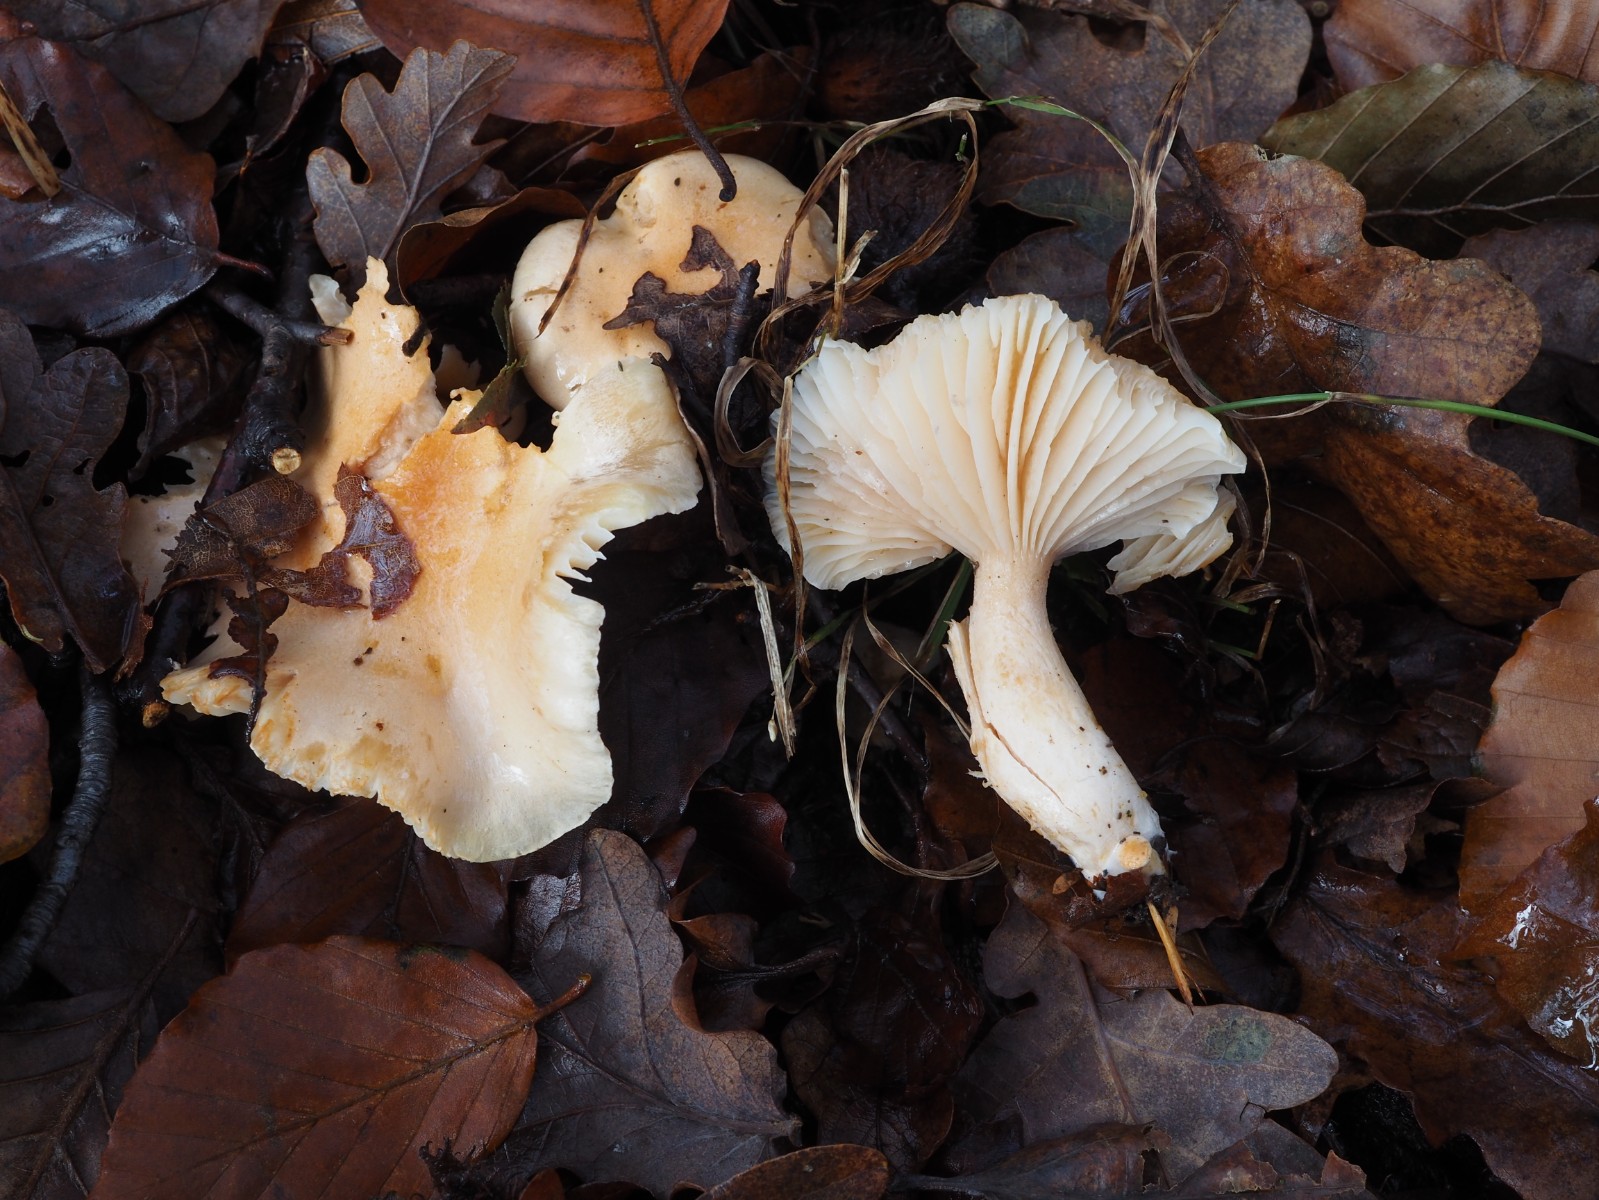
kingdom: Fungi
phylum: Basidiomycota
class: Agaricomycetes
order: Agaricales
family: Hygrophoraceae
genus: Hygrophorus
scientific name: Hygrophorus unicolor
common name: orangeøjet sneglehat
